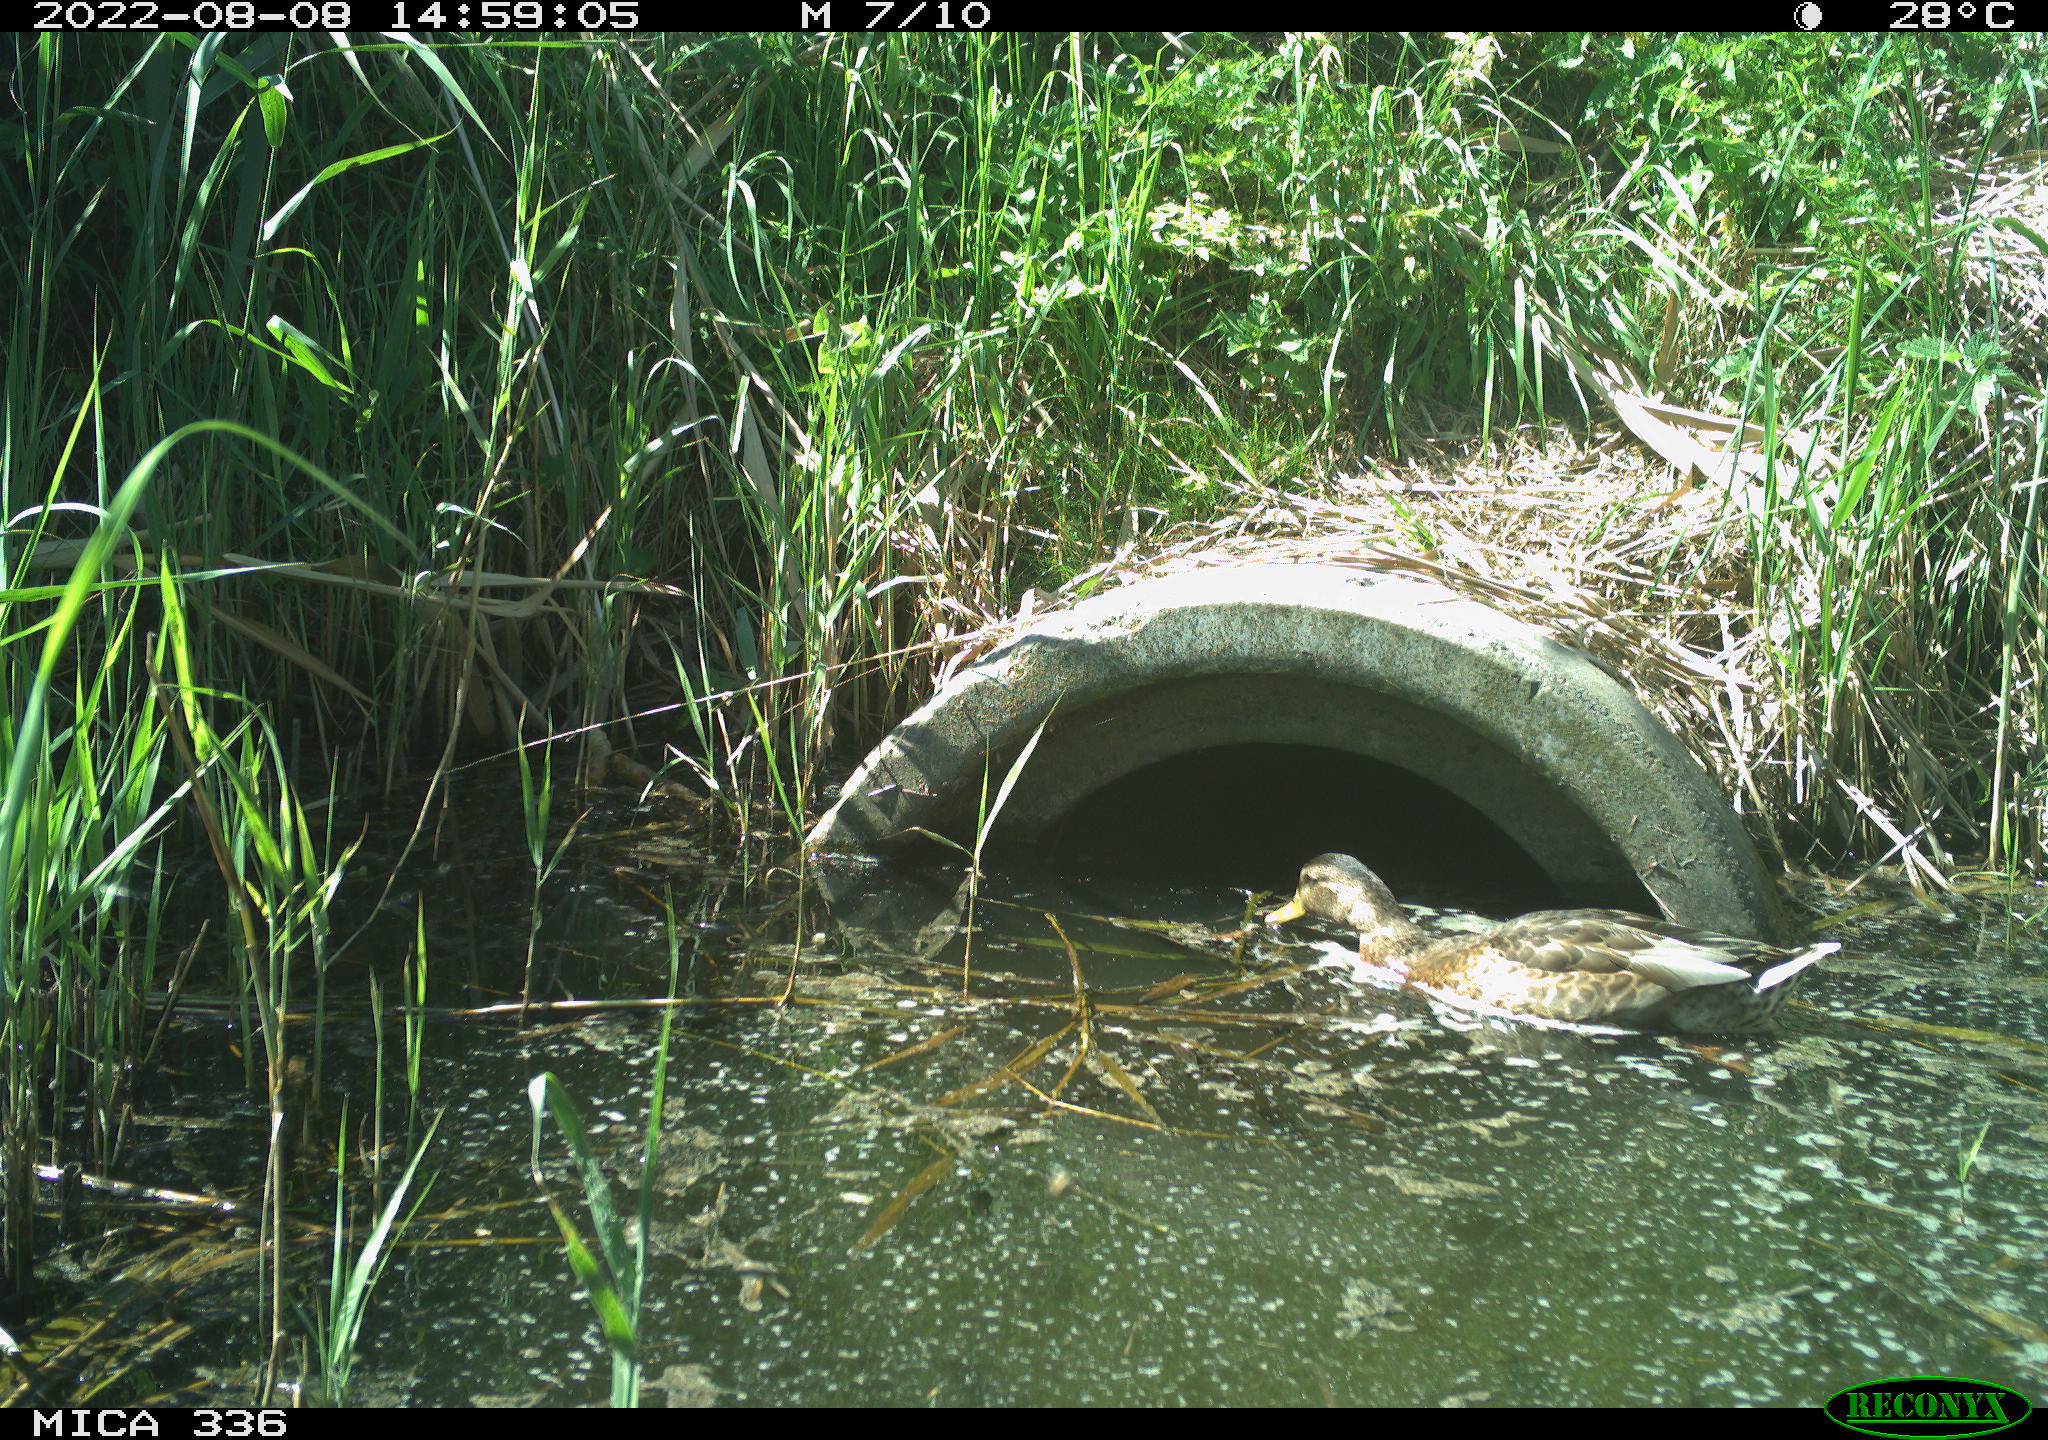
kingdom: Animalia
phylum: Chordata
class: Aves
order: Anseriformes
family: Anatidae
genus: Mareca
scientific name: Mareca strepera
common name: Gadwall
